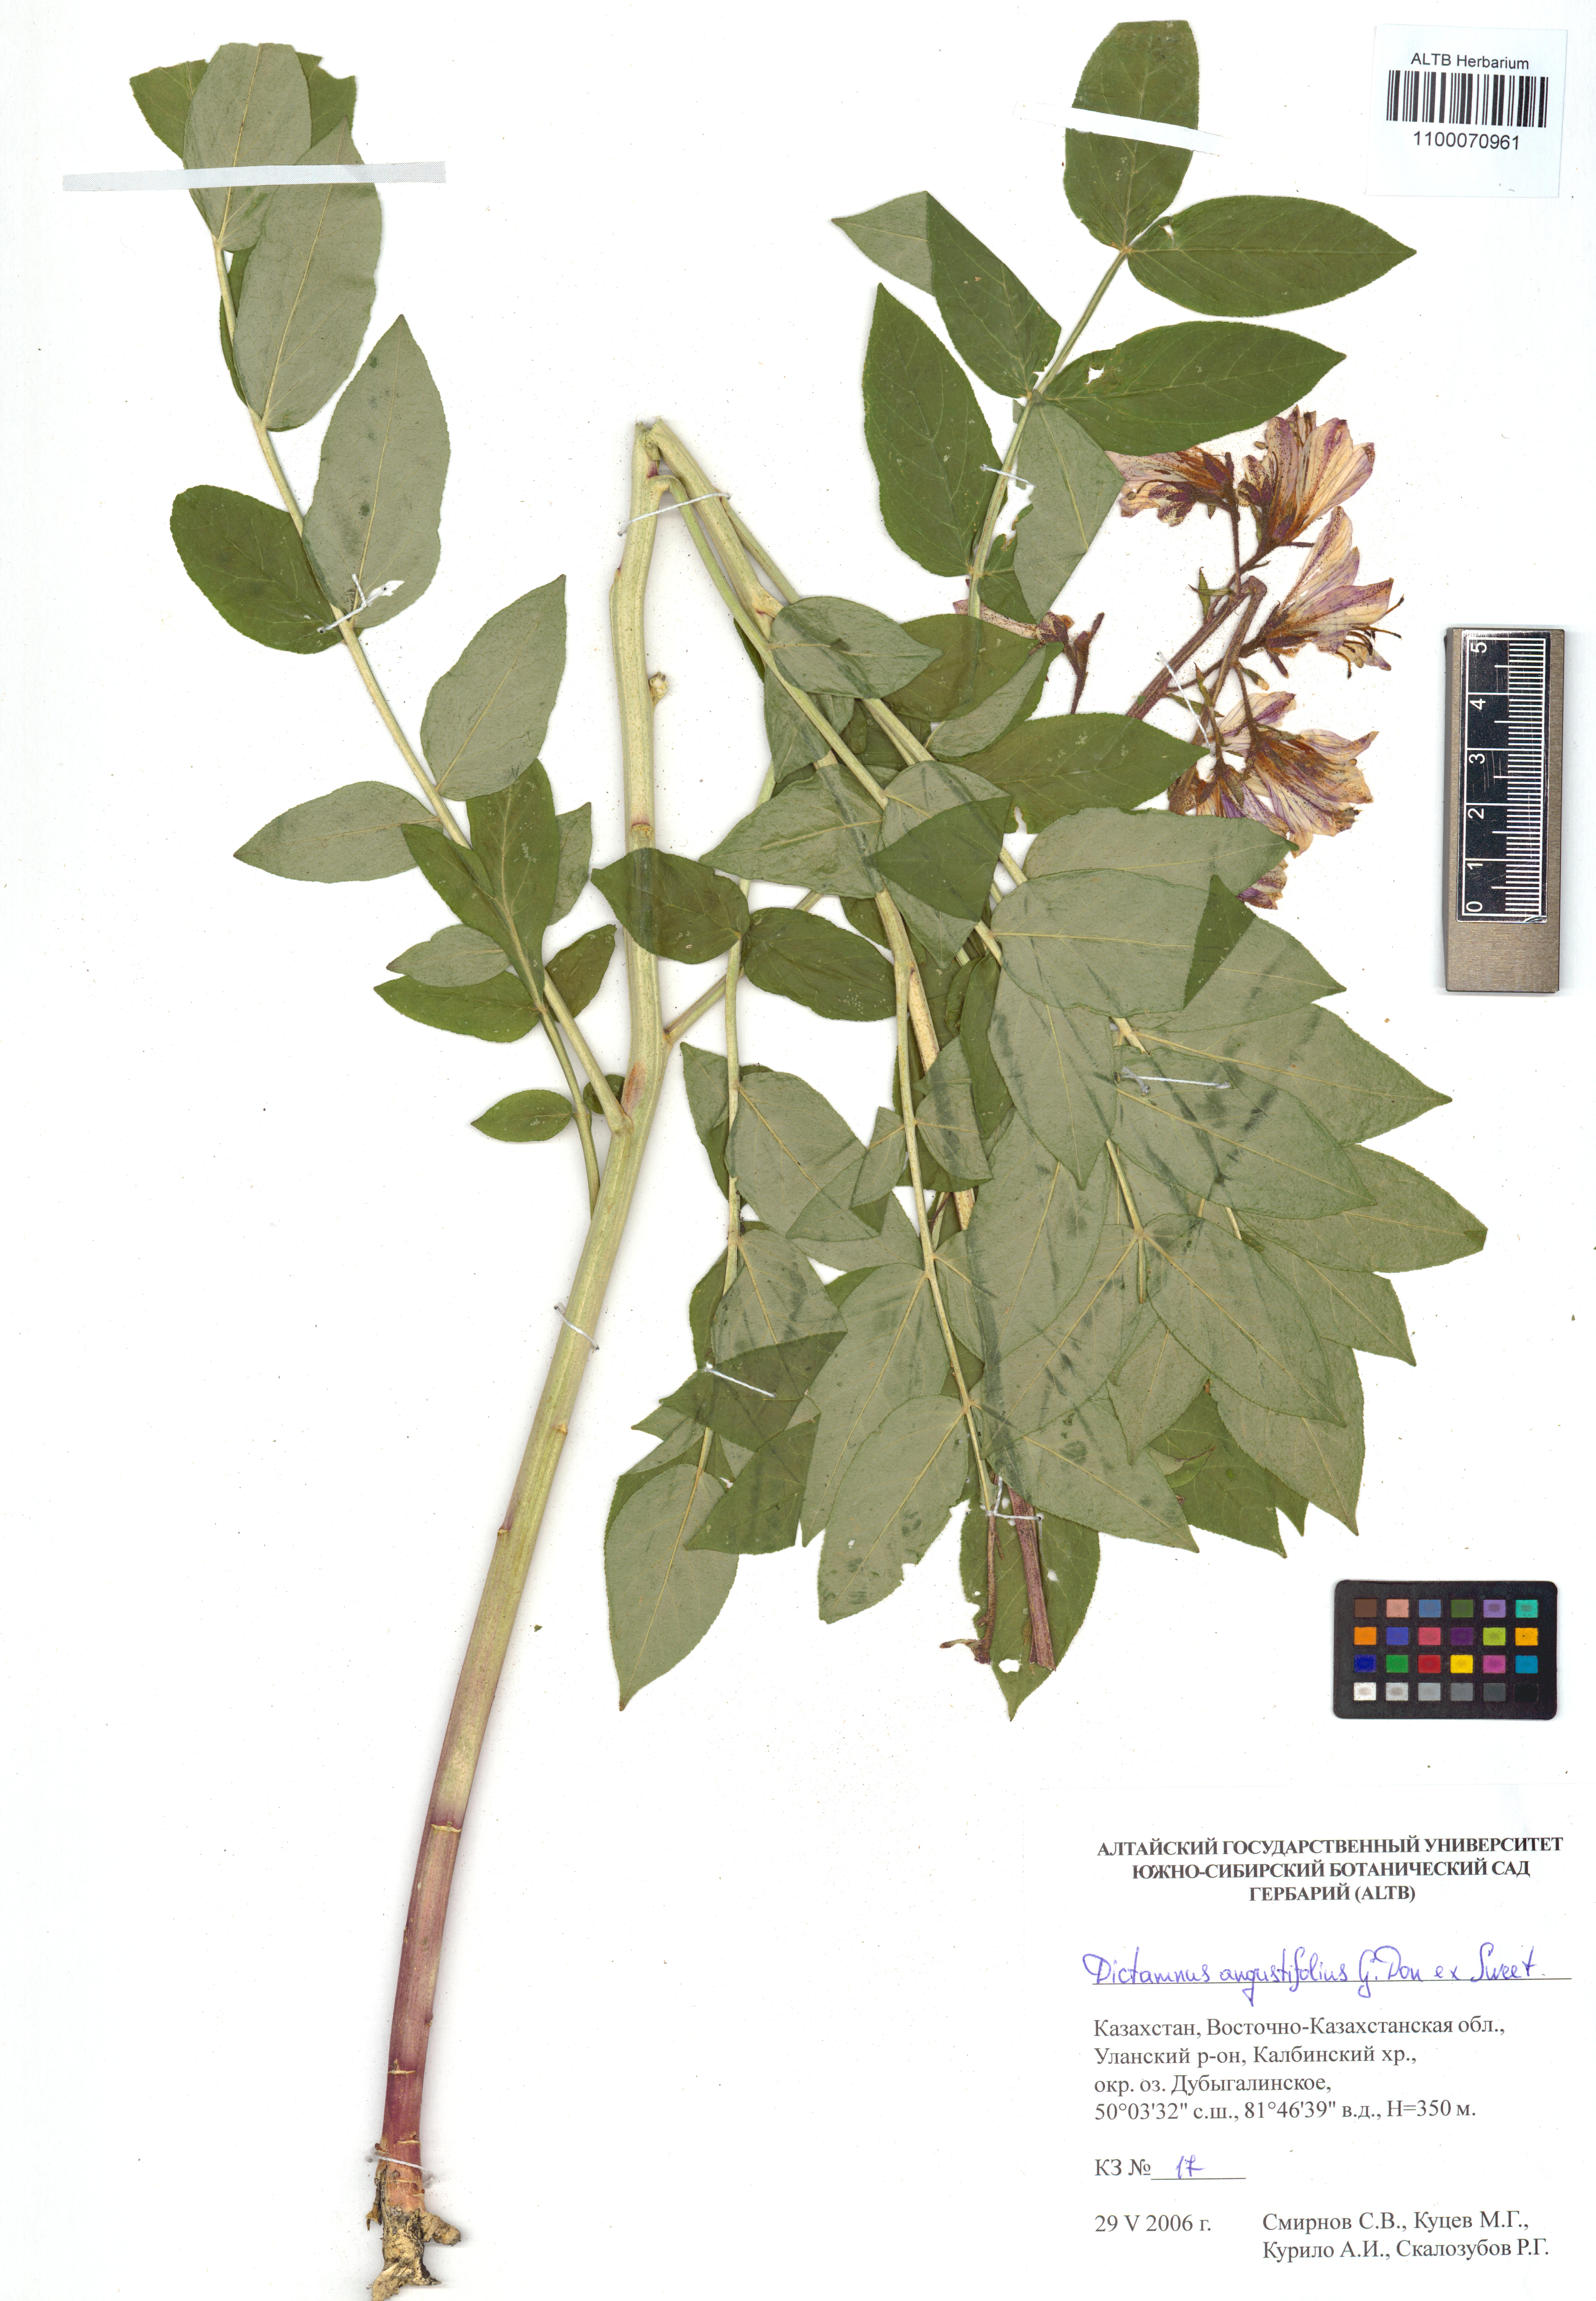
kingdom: Plantae
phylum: Tracheophyta
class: Magnoliopsida
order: Sapindales
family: Rutaceae
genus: Dictamnus
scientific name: Dictamnus albus
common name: Gasplant
